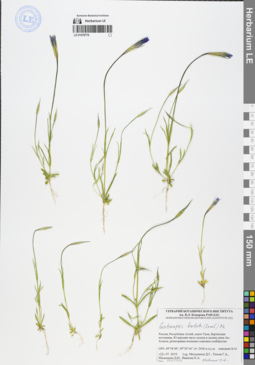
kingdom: Plantae
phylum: Tracheophyta
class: Magnoliopsida
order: Gentianales
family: Gentianaceae
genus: Gentianopsis
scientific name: Gentianopsis barbata
